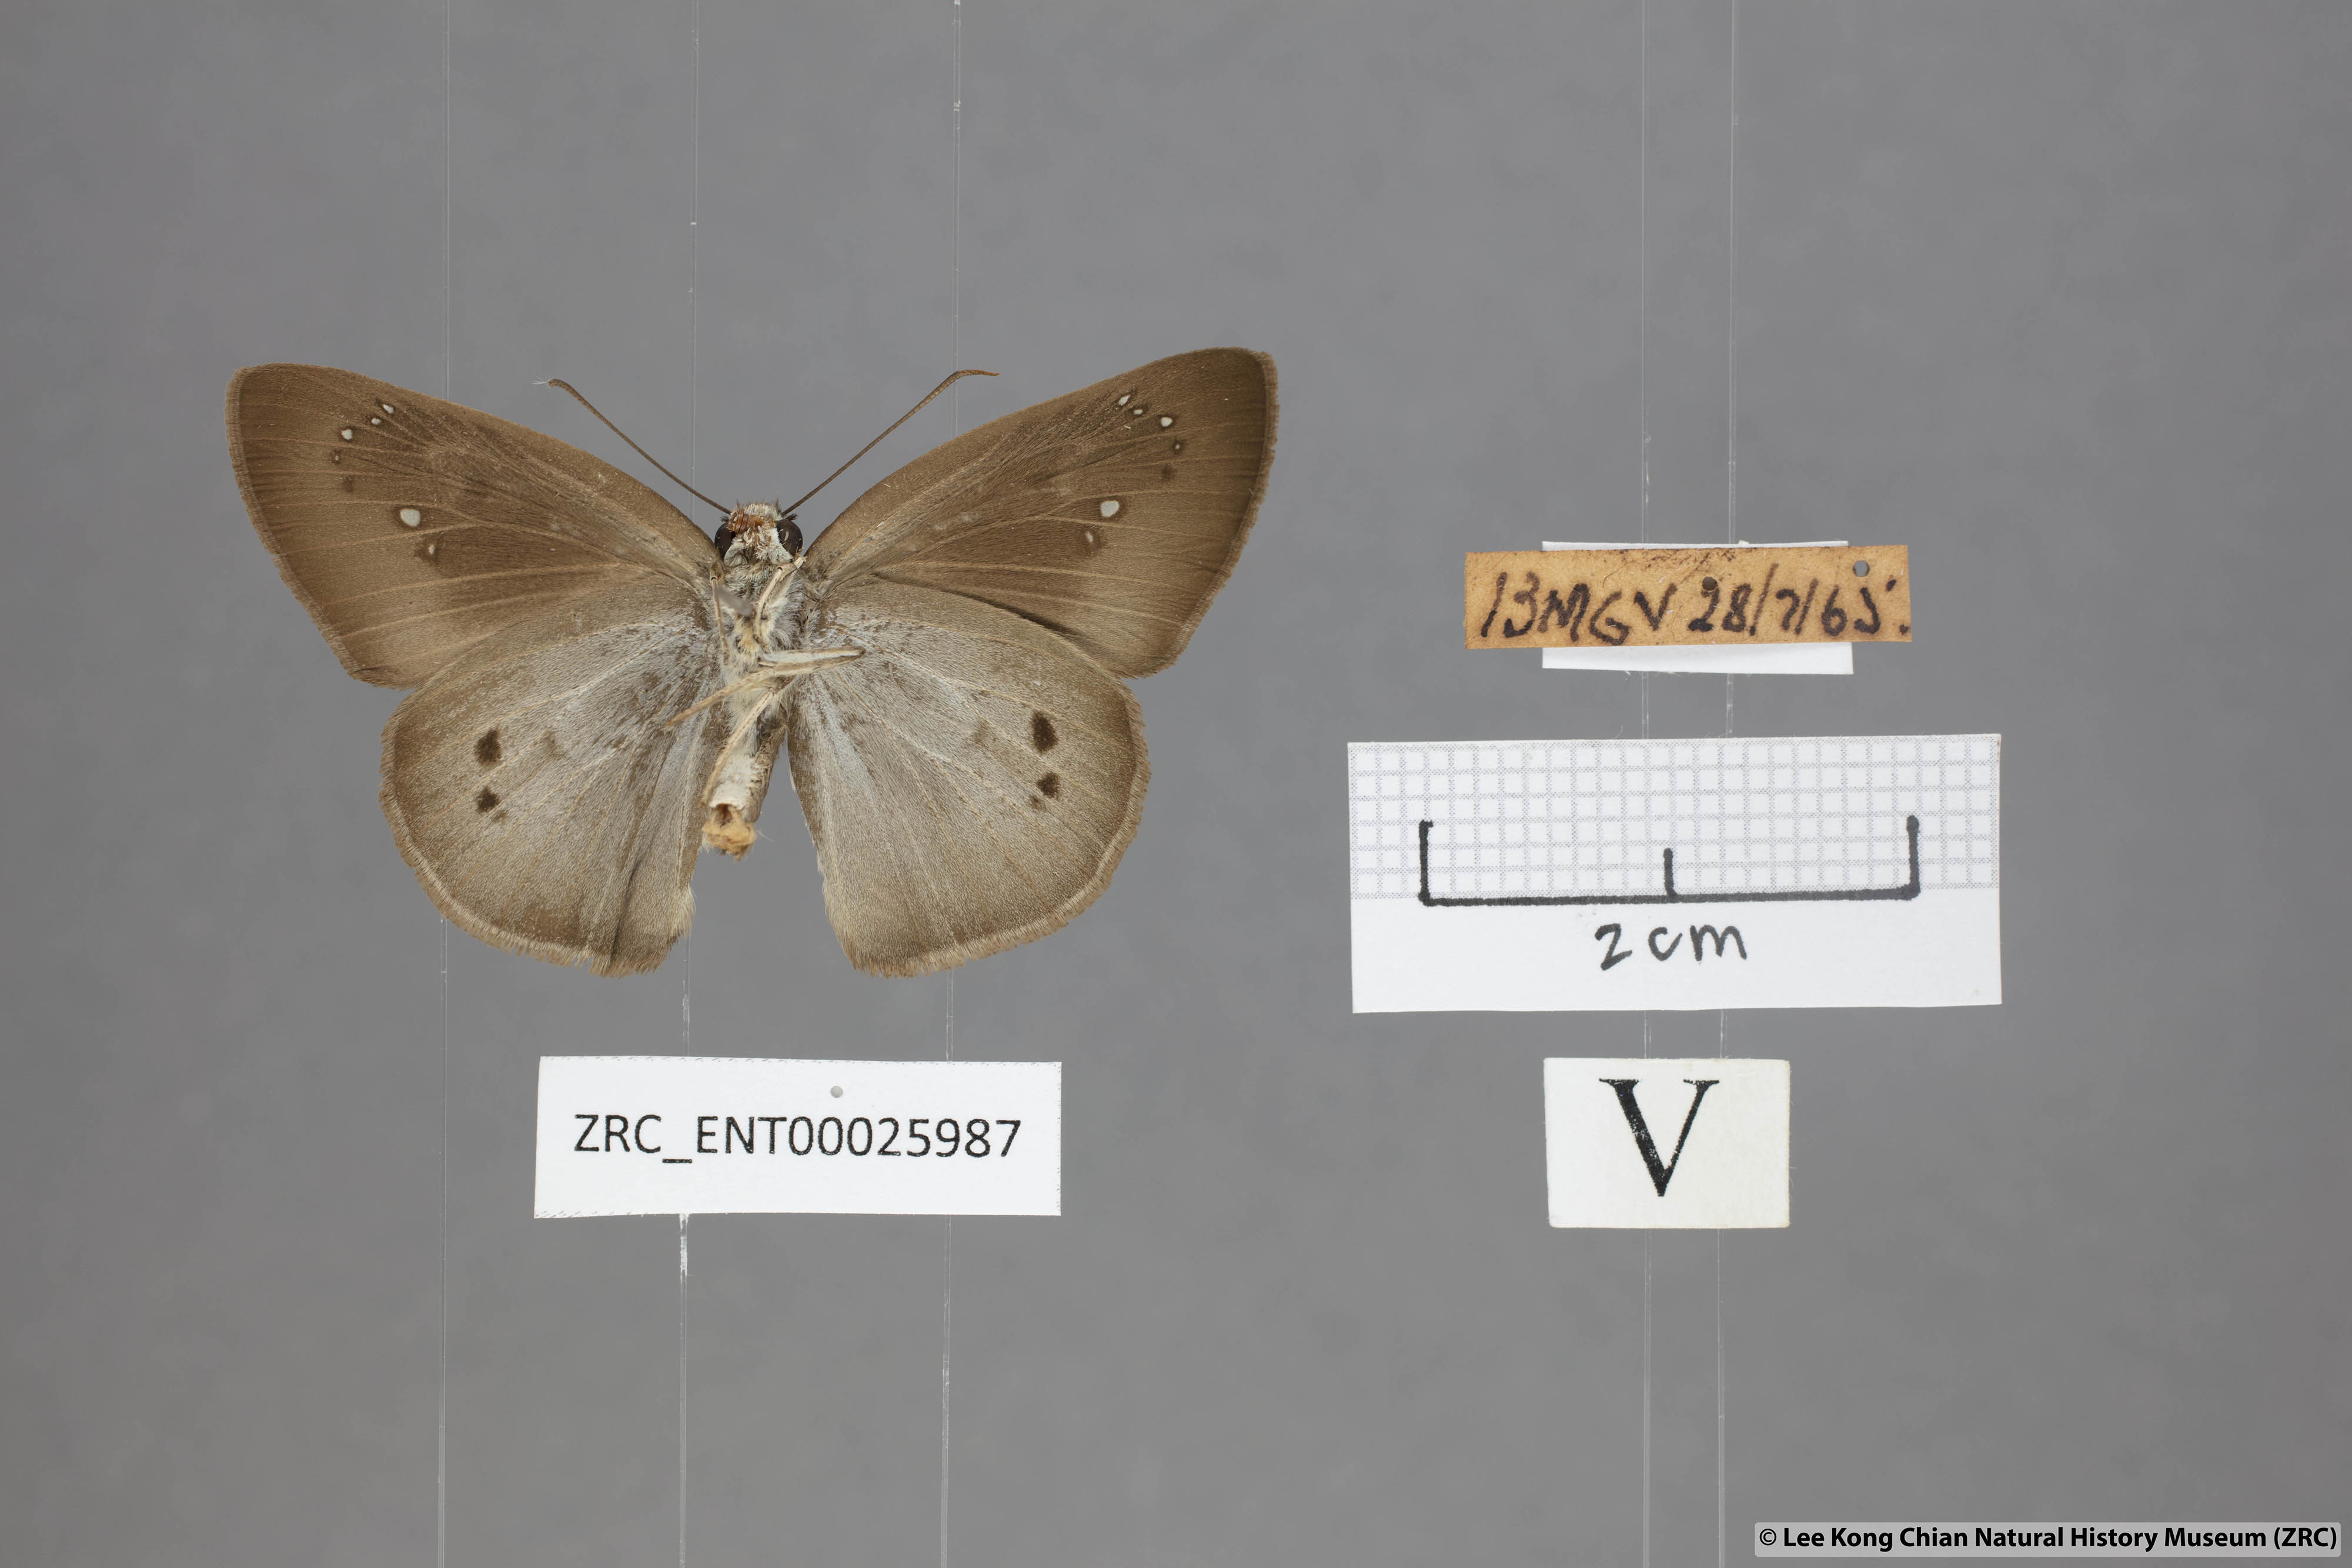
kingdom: Animalia
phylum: Arthropoda
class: Insecta
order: Lepidoptera
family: Hesperiidae
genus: Tagiades
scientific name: Tagiades japetus
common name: Pied flat
